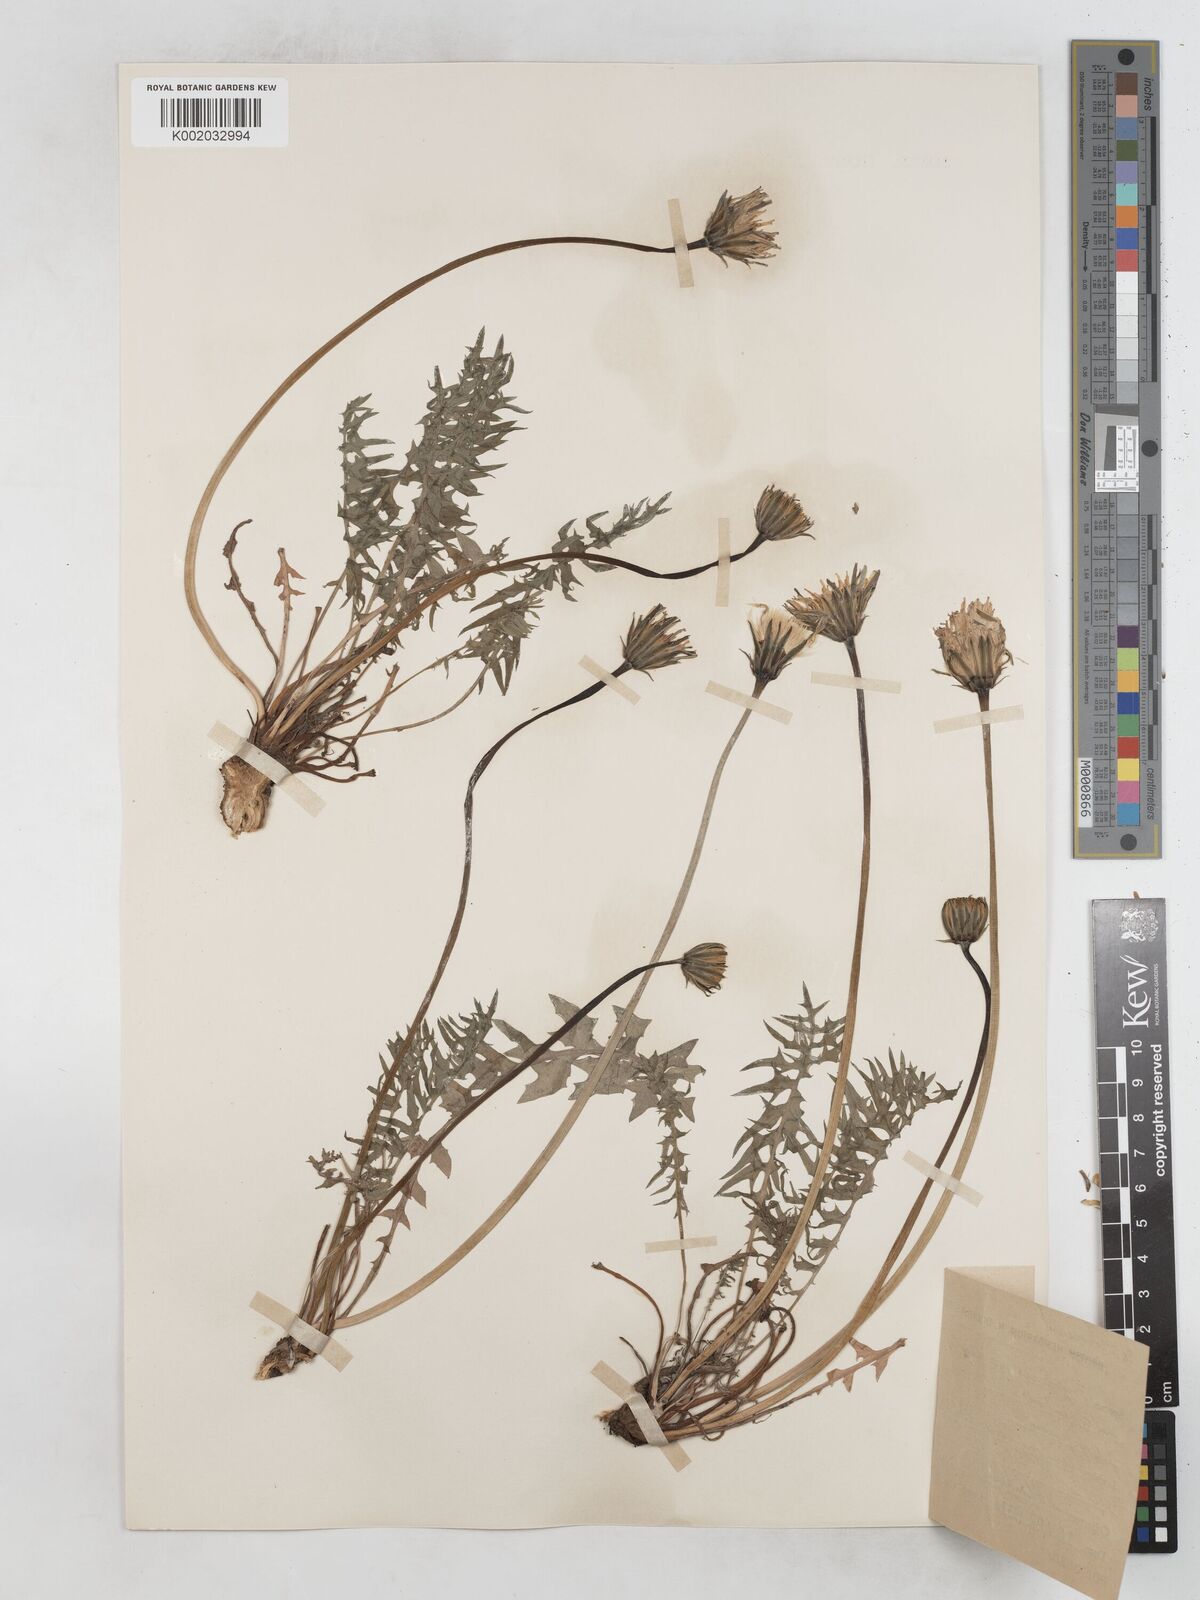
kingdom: Plantae
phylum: Tracheophyta
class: Magnoliopsida
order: Asterales
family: Asteraceae
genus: Hyoseris
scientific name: Hyoseris radiata
